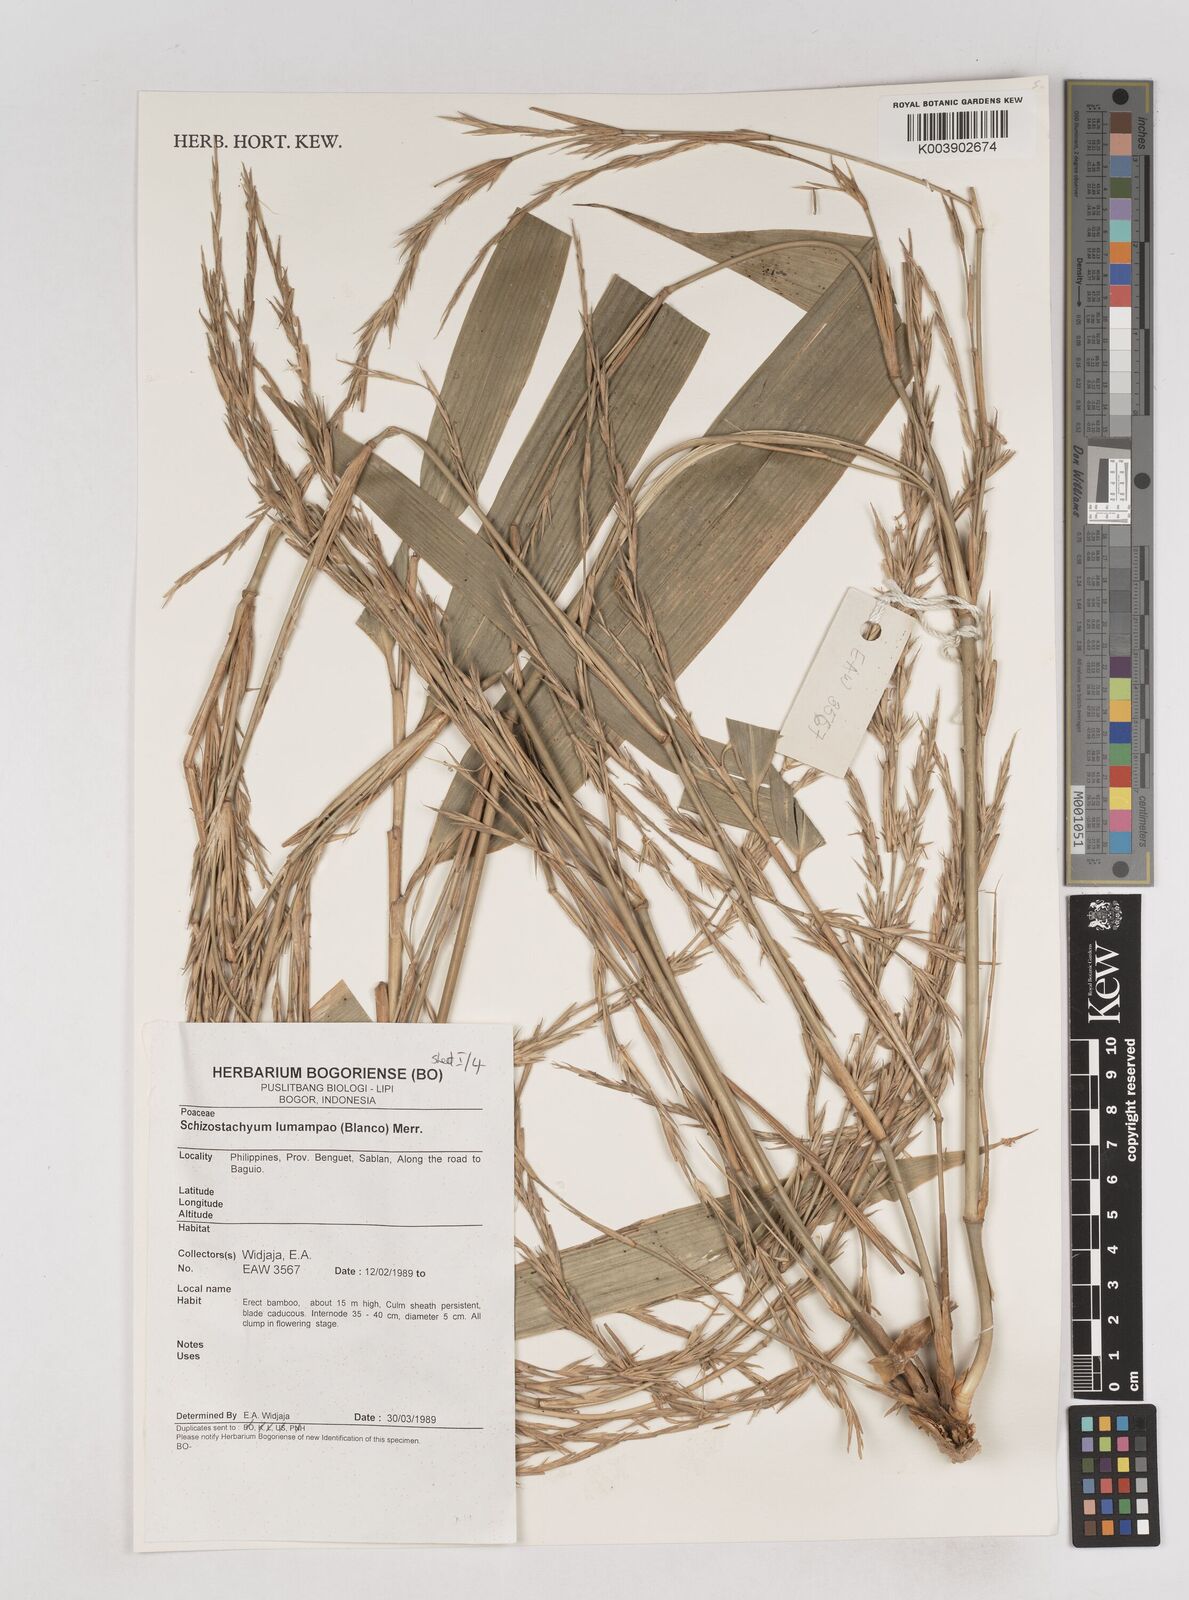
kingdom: Plantae
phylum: Tracheophyta
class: Liliopsida
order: Poales
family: Poaceae
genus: Schizostachyum
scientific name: Schizostachyum lumampao
